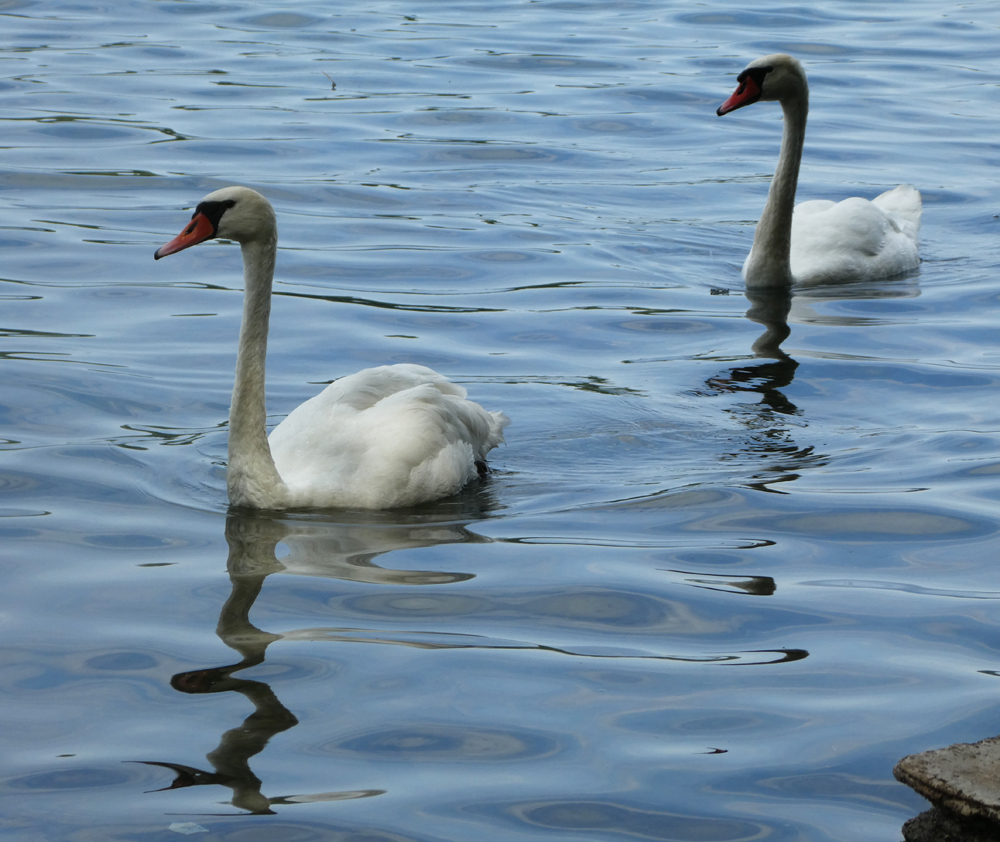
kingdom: Animalia
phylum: Chordata
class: Aves
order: Anseriformes
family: Anatidae
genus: Cygnus
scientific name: Cygnus olor
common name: Mute swan
